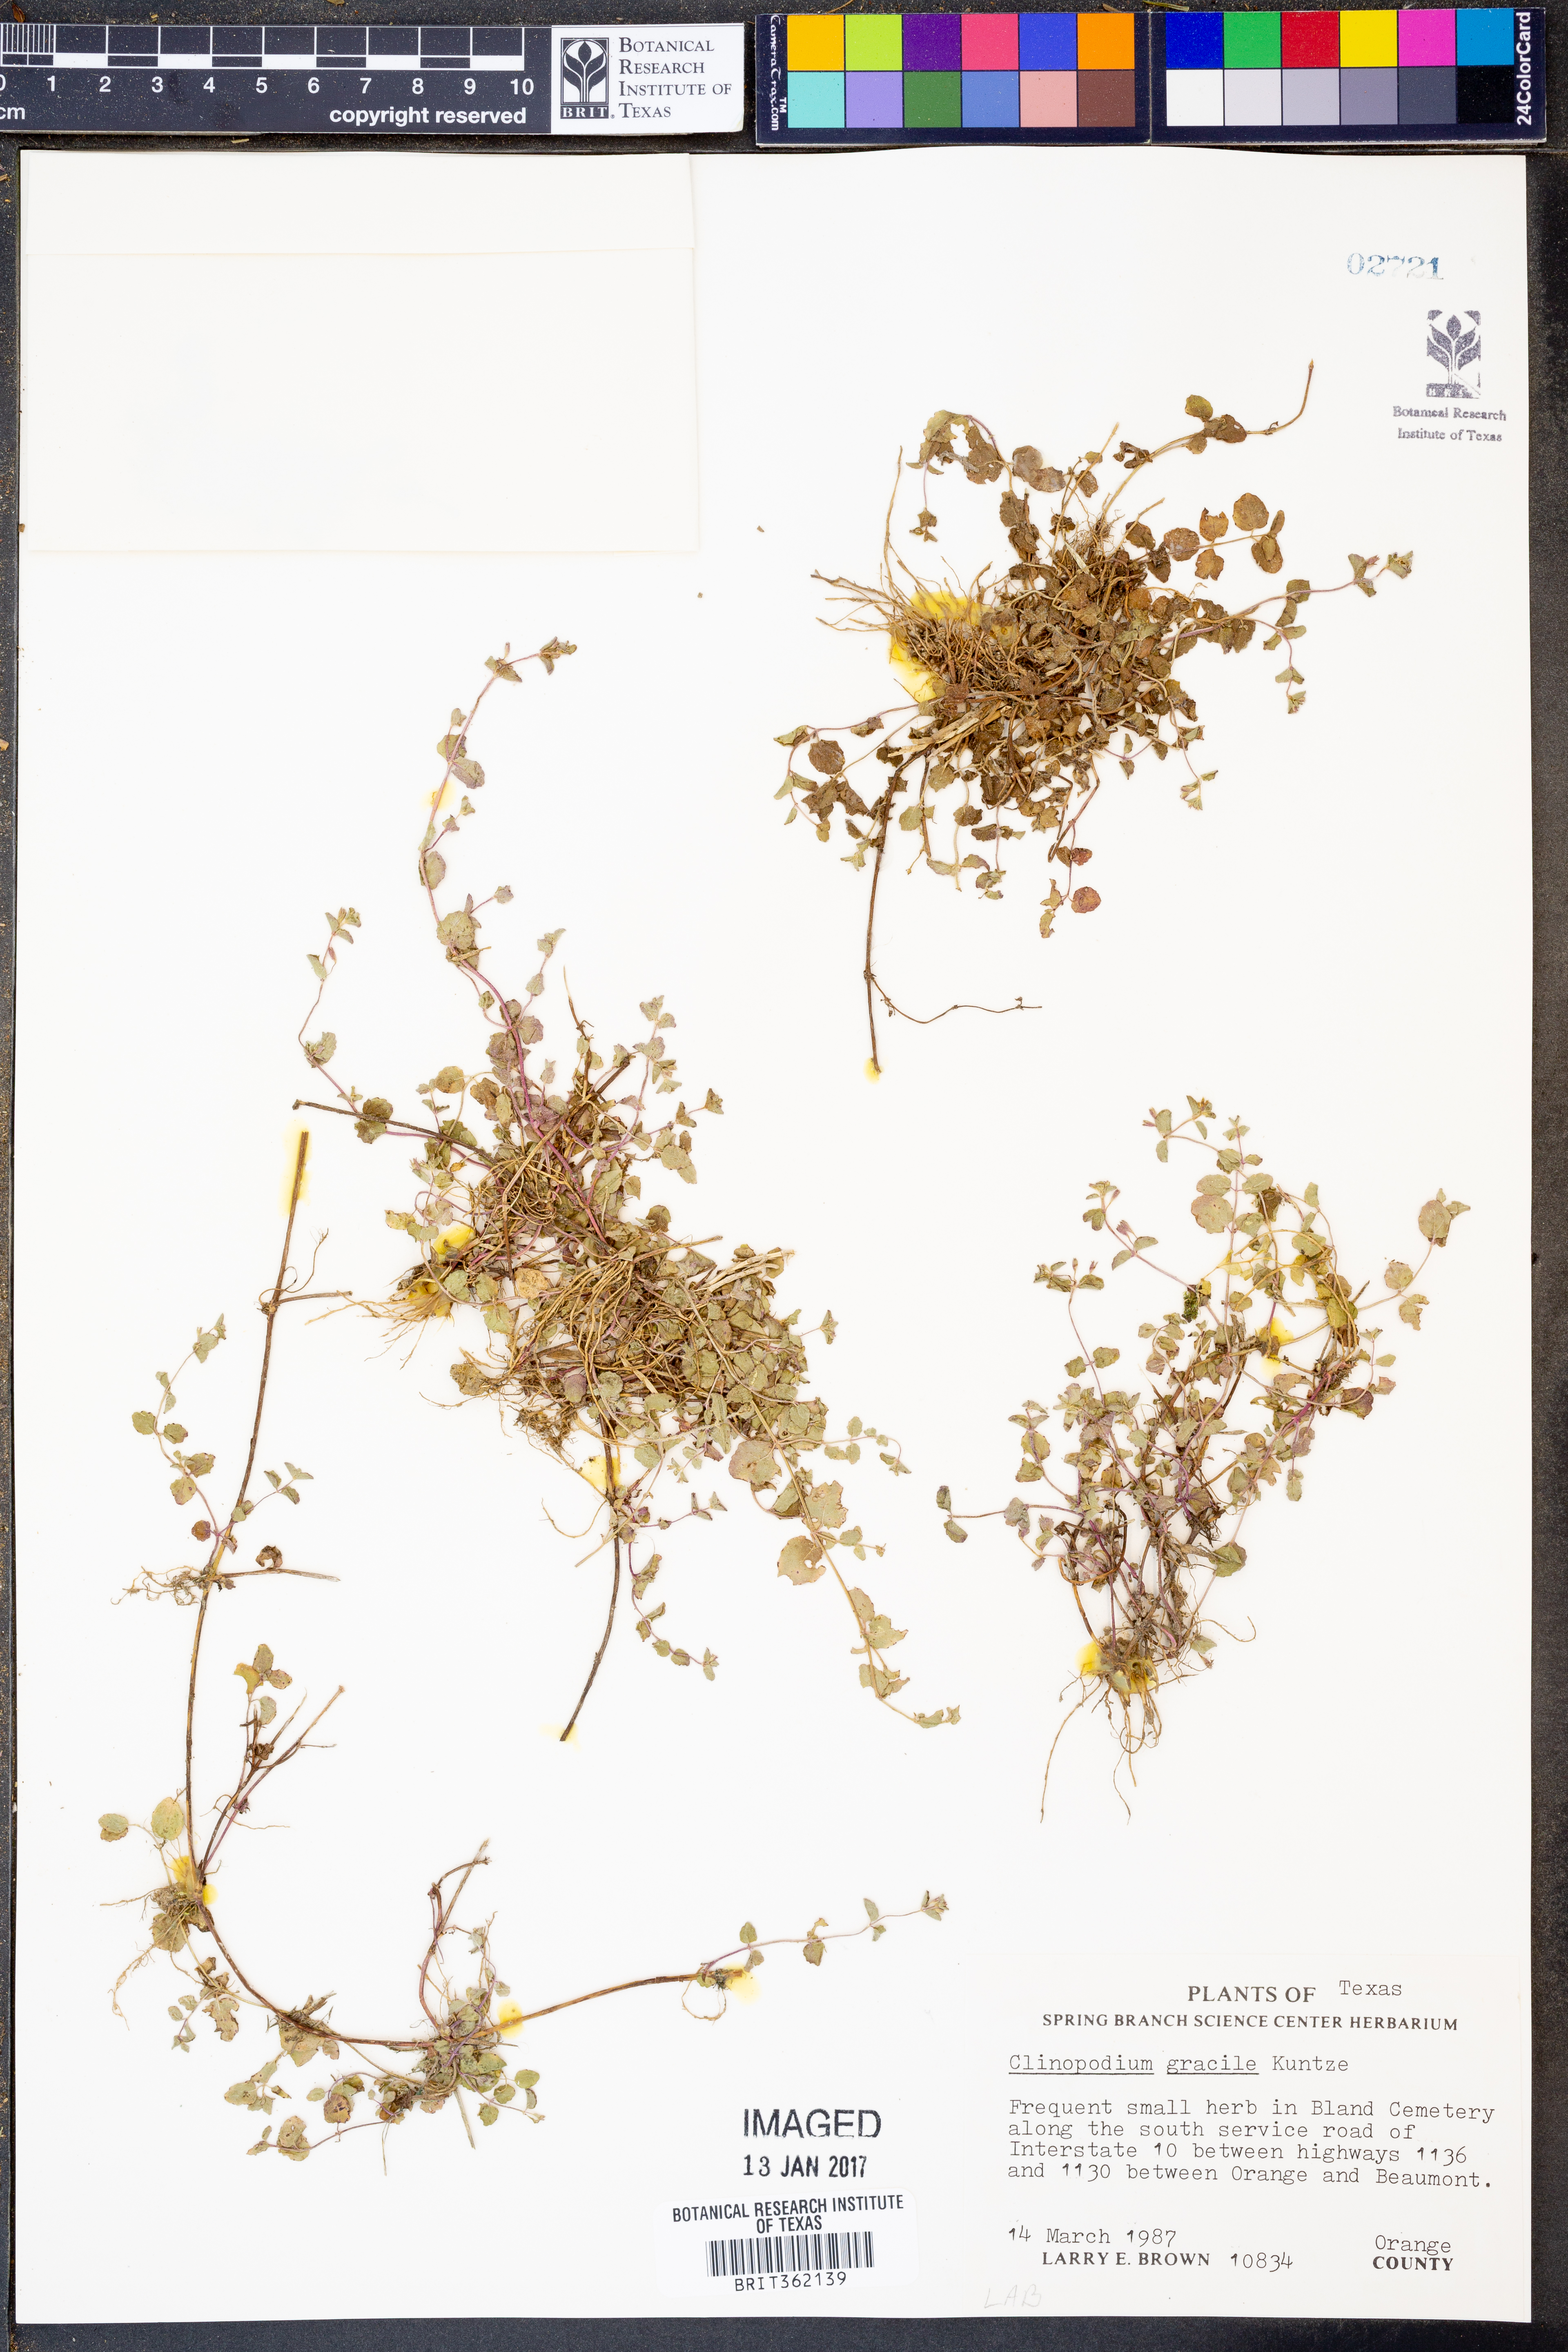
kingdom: Plantae
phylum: Tracheophyta
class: Magnoliopsida
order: Lamiales
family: Lamiaceae
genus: Clinopodium
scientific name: Clinopodium gracile
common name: Slender wild basil
